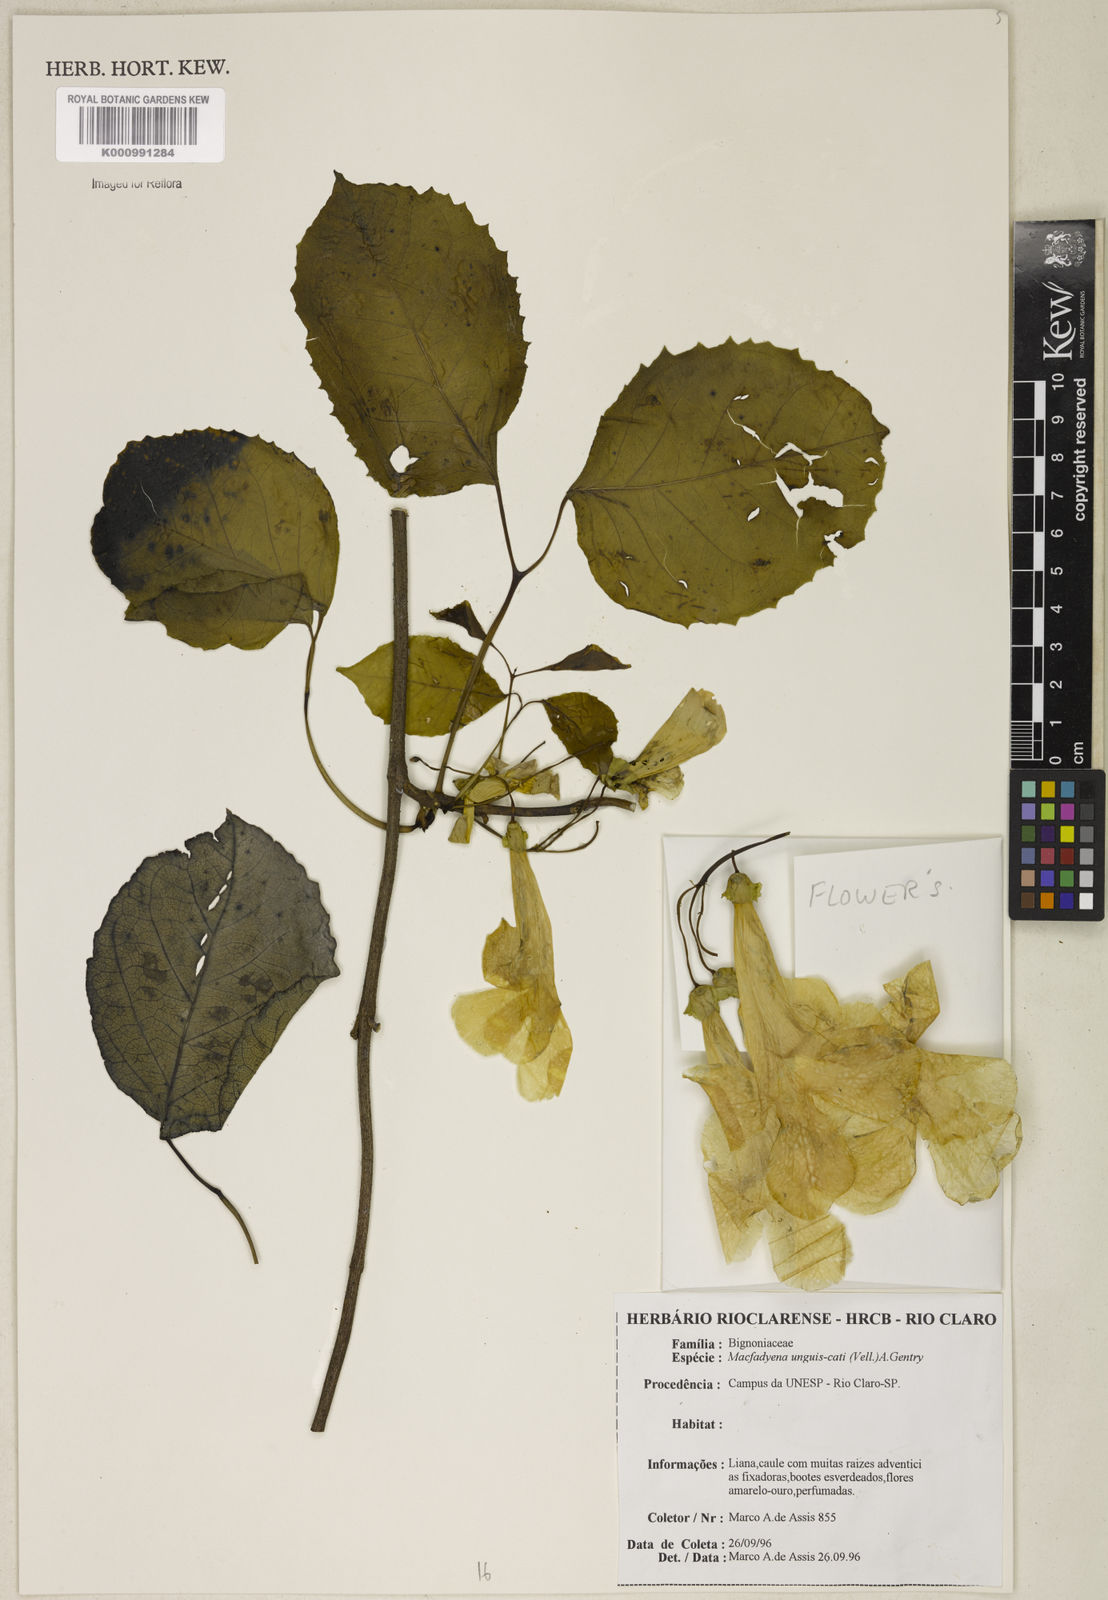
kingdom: Plantae
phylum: Tracheophyta
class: Magnoliopsida
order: Lamiales
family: Bignoniaceae
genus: Dolichandra
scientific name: Dolichandra unguis-cati
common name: Catclaw vine
